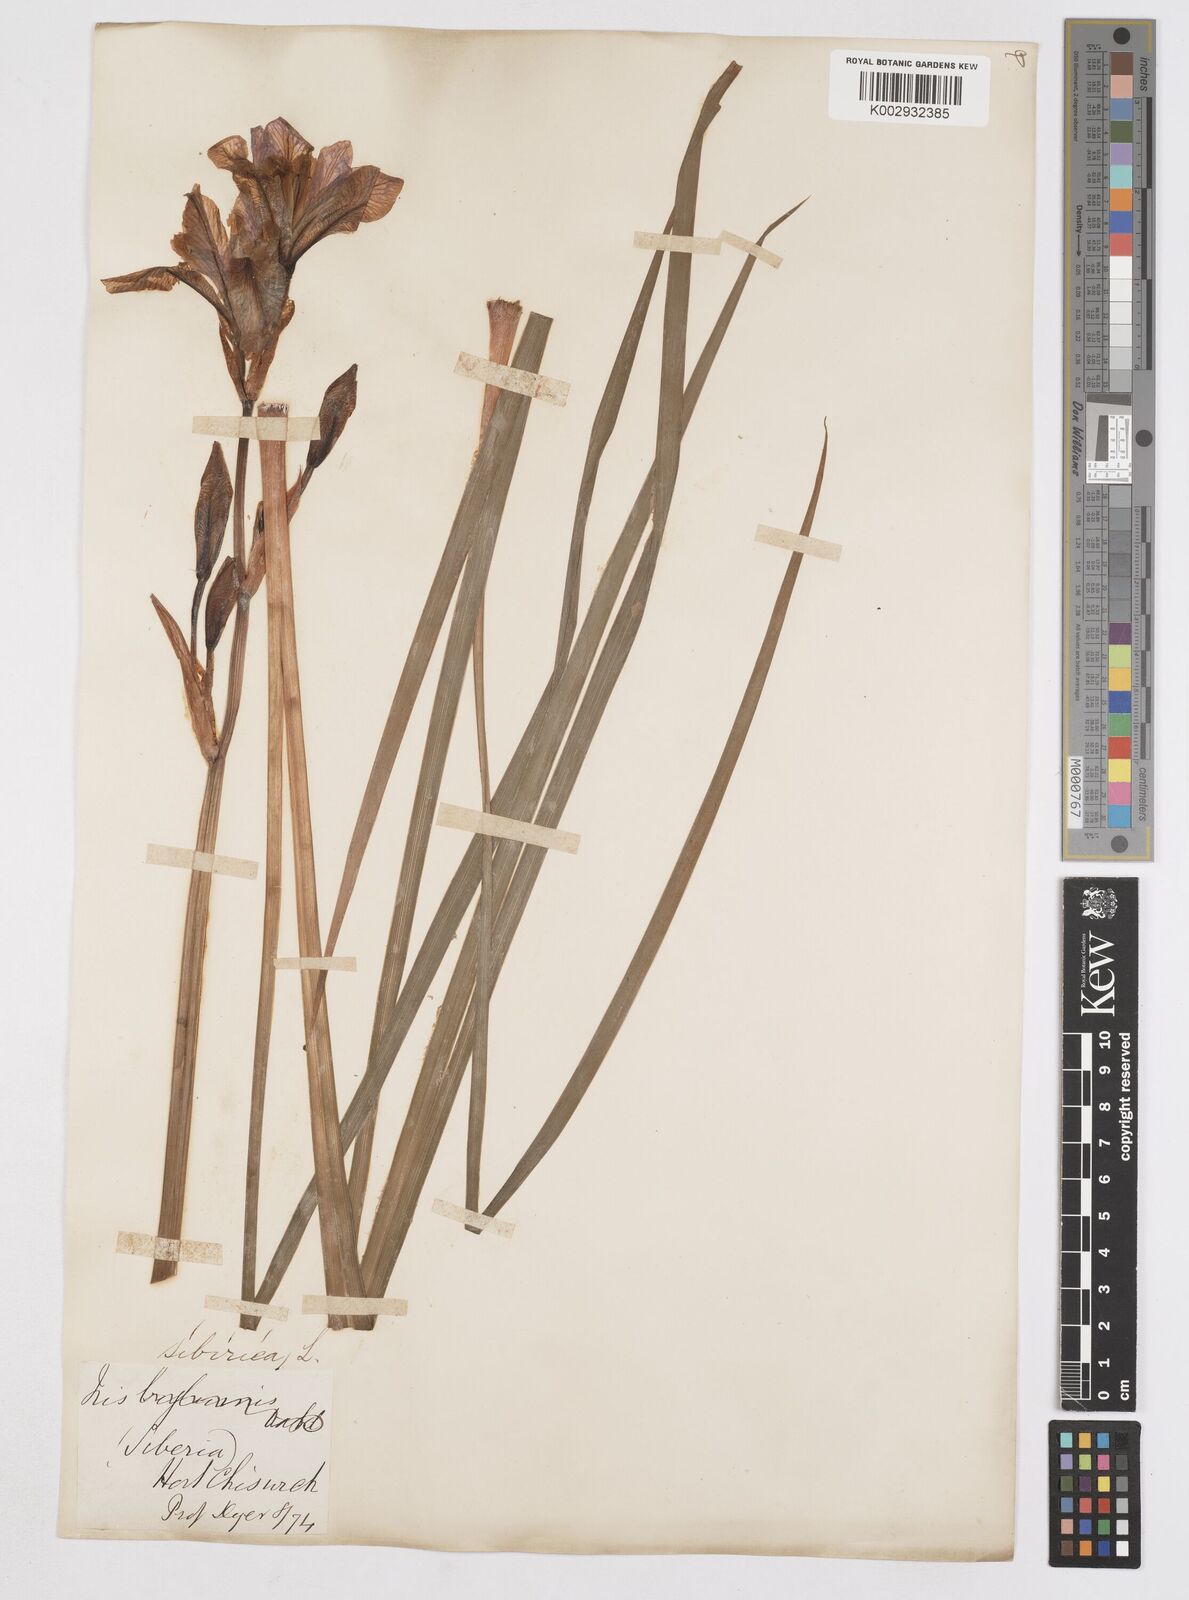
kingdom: Plantae
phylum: Tracheophyta
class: Liliopsida
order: Asparagales
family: Iridaceae
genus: Iris
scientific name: Iris sibirica
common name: Siberian iris
